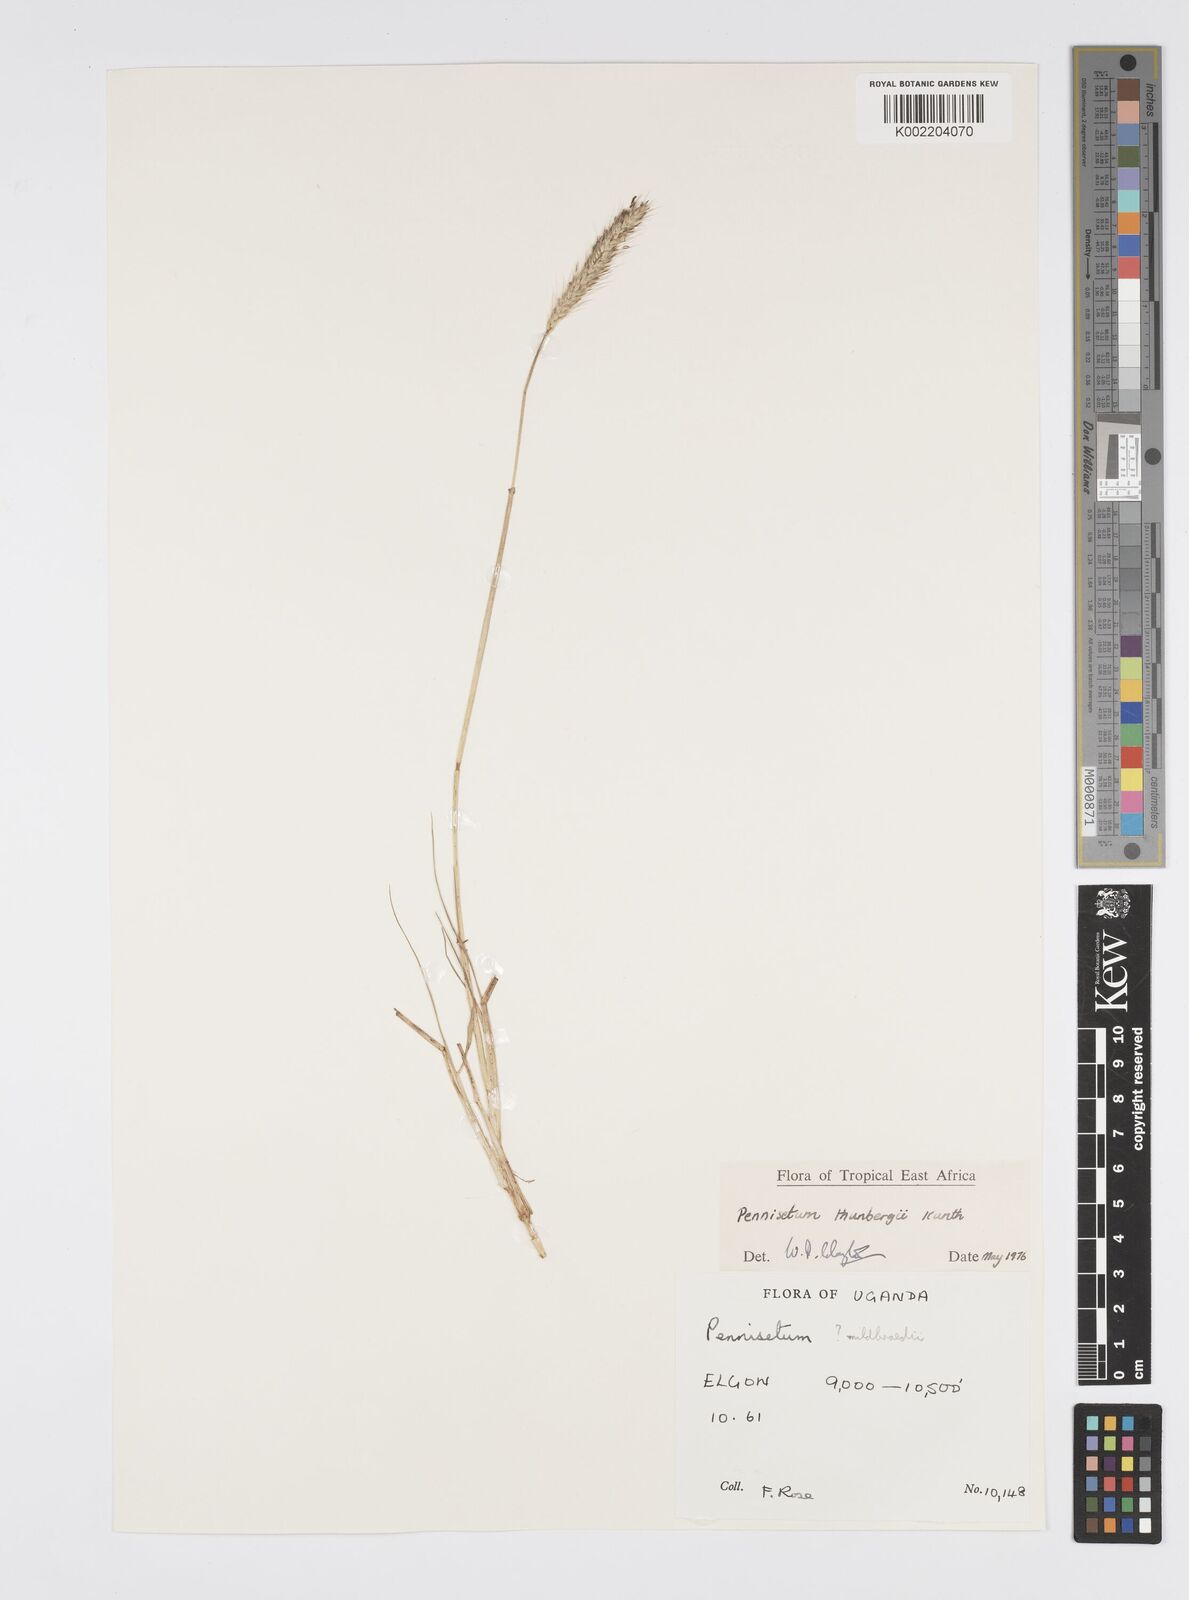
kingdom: Plantae
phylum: Tracheophyta
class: Liliopsida
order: Poales
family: Poaceae
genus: Cenchrus
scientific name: Cenchrus geniculatus
